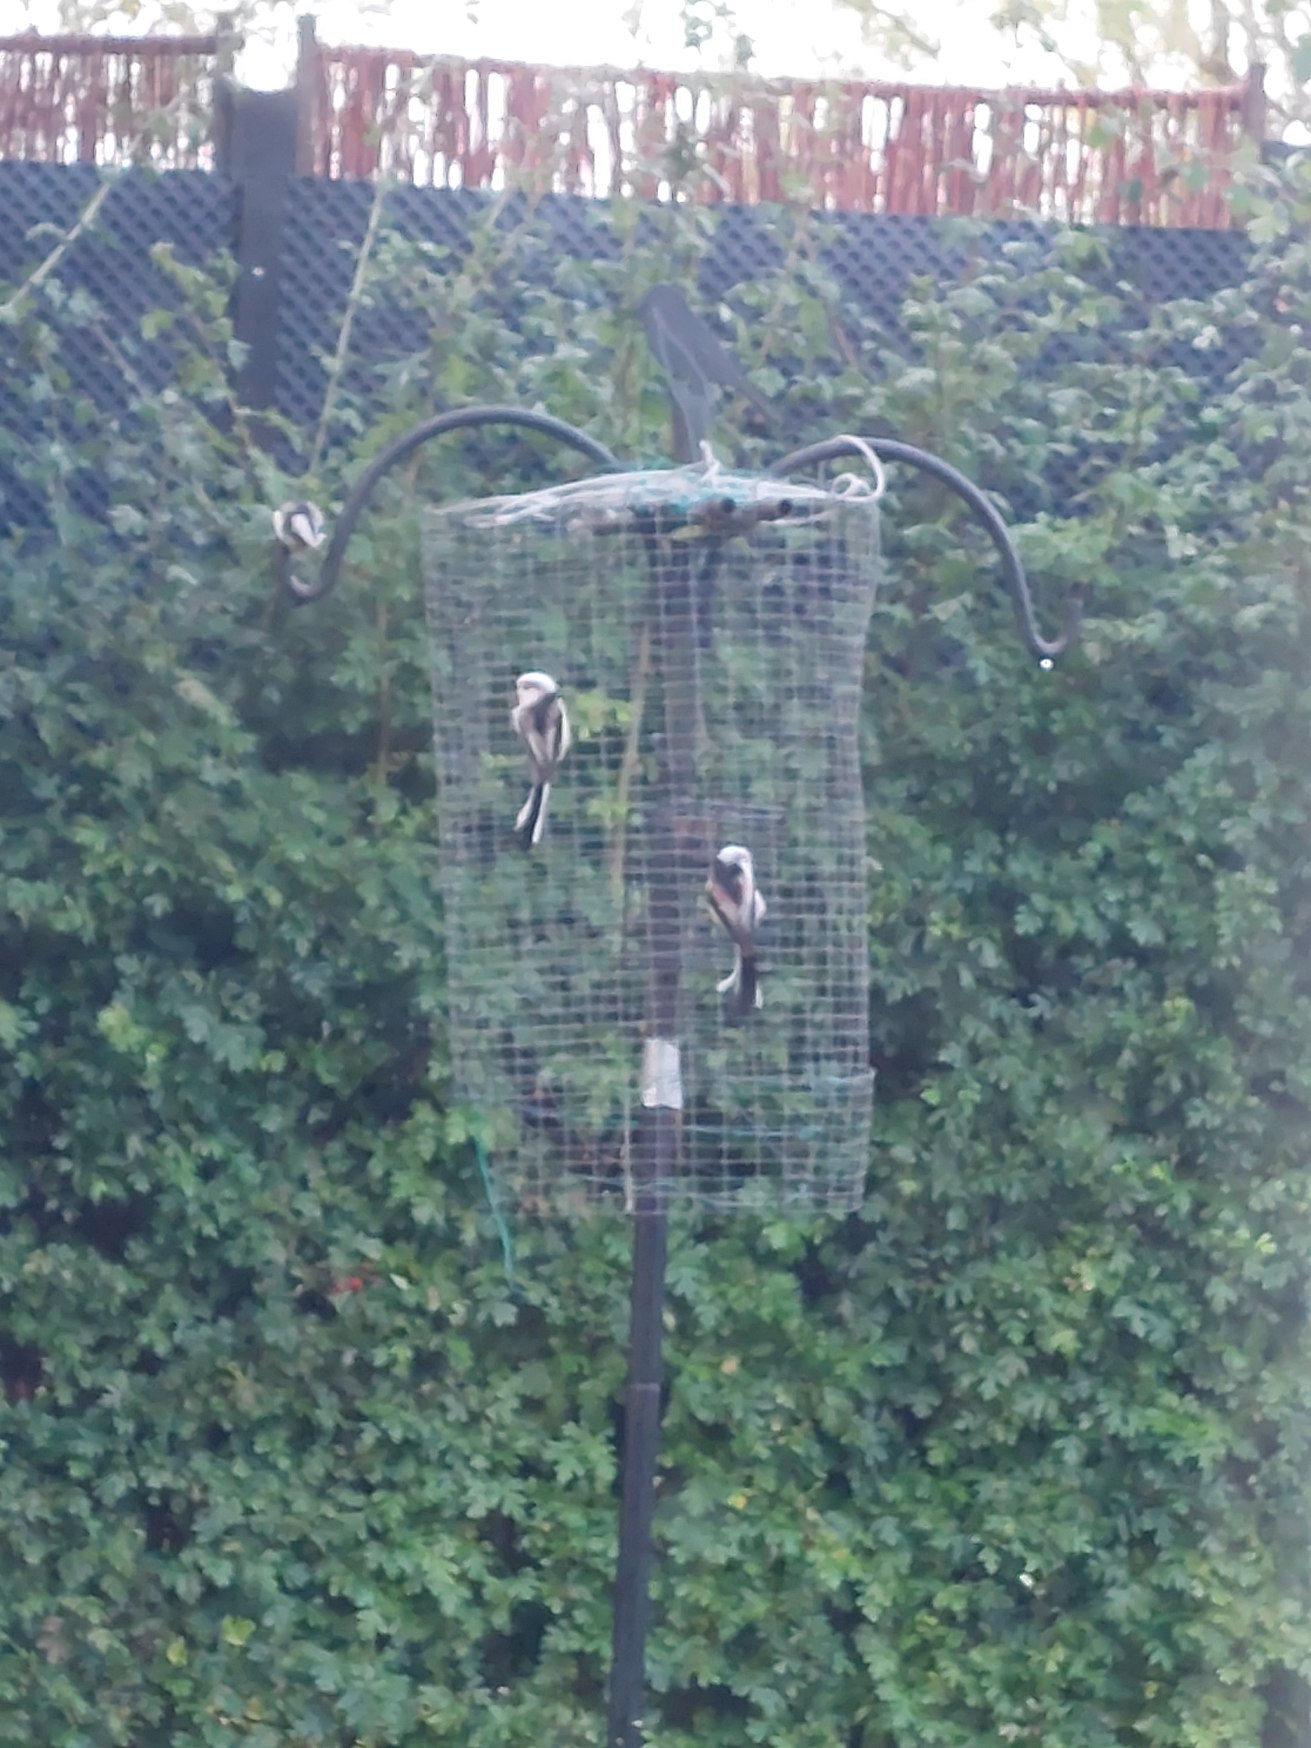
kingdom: Animalia
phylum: Chordata
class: Aves
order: Passeriformes
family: Aegithalidae
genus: Aegithalos
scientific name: Aegithalos caudatus
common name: Halemejse
